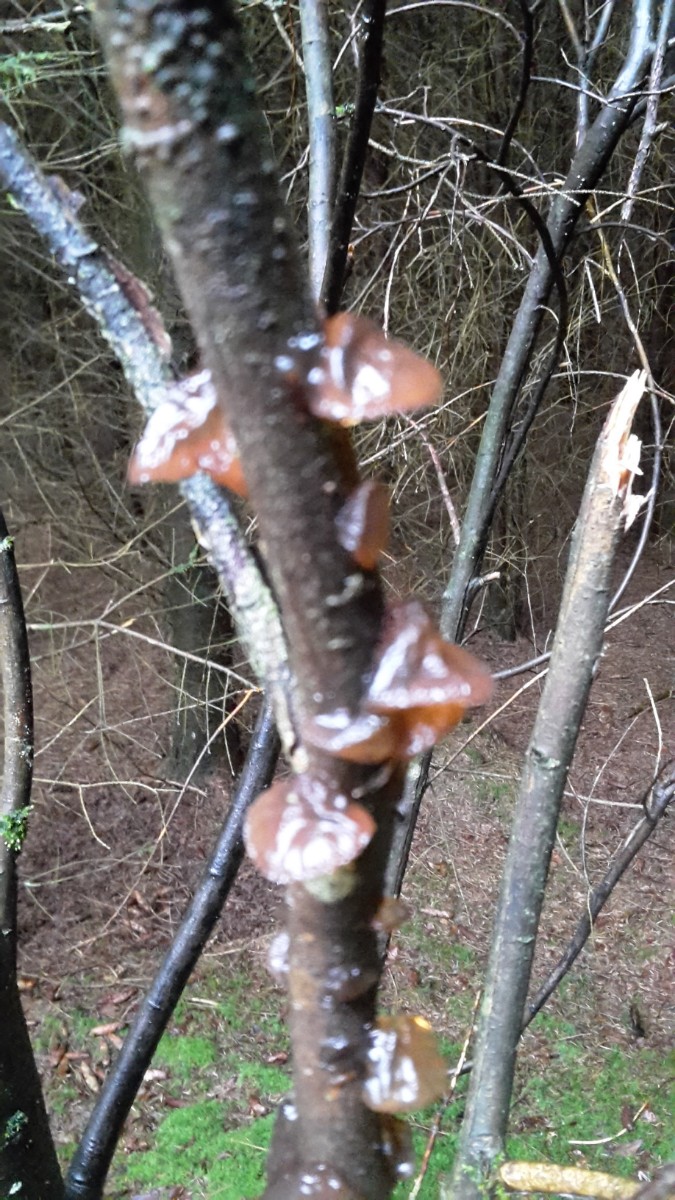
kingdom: Fungi
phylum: Basidiomycota
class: Agaricomycetes
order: Auriculariales
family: Auriculariaceae
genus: Exidia
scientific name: Exidia recisa
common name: pile-bævretop
